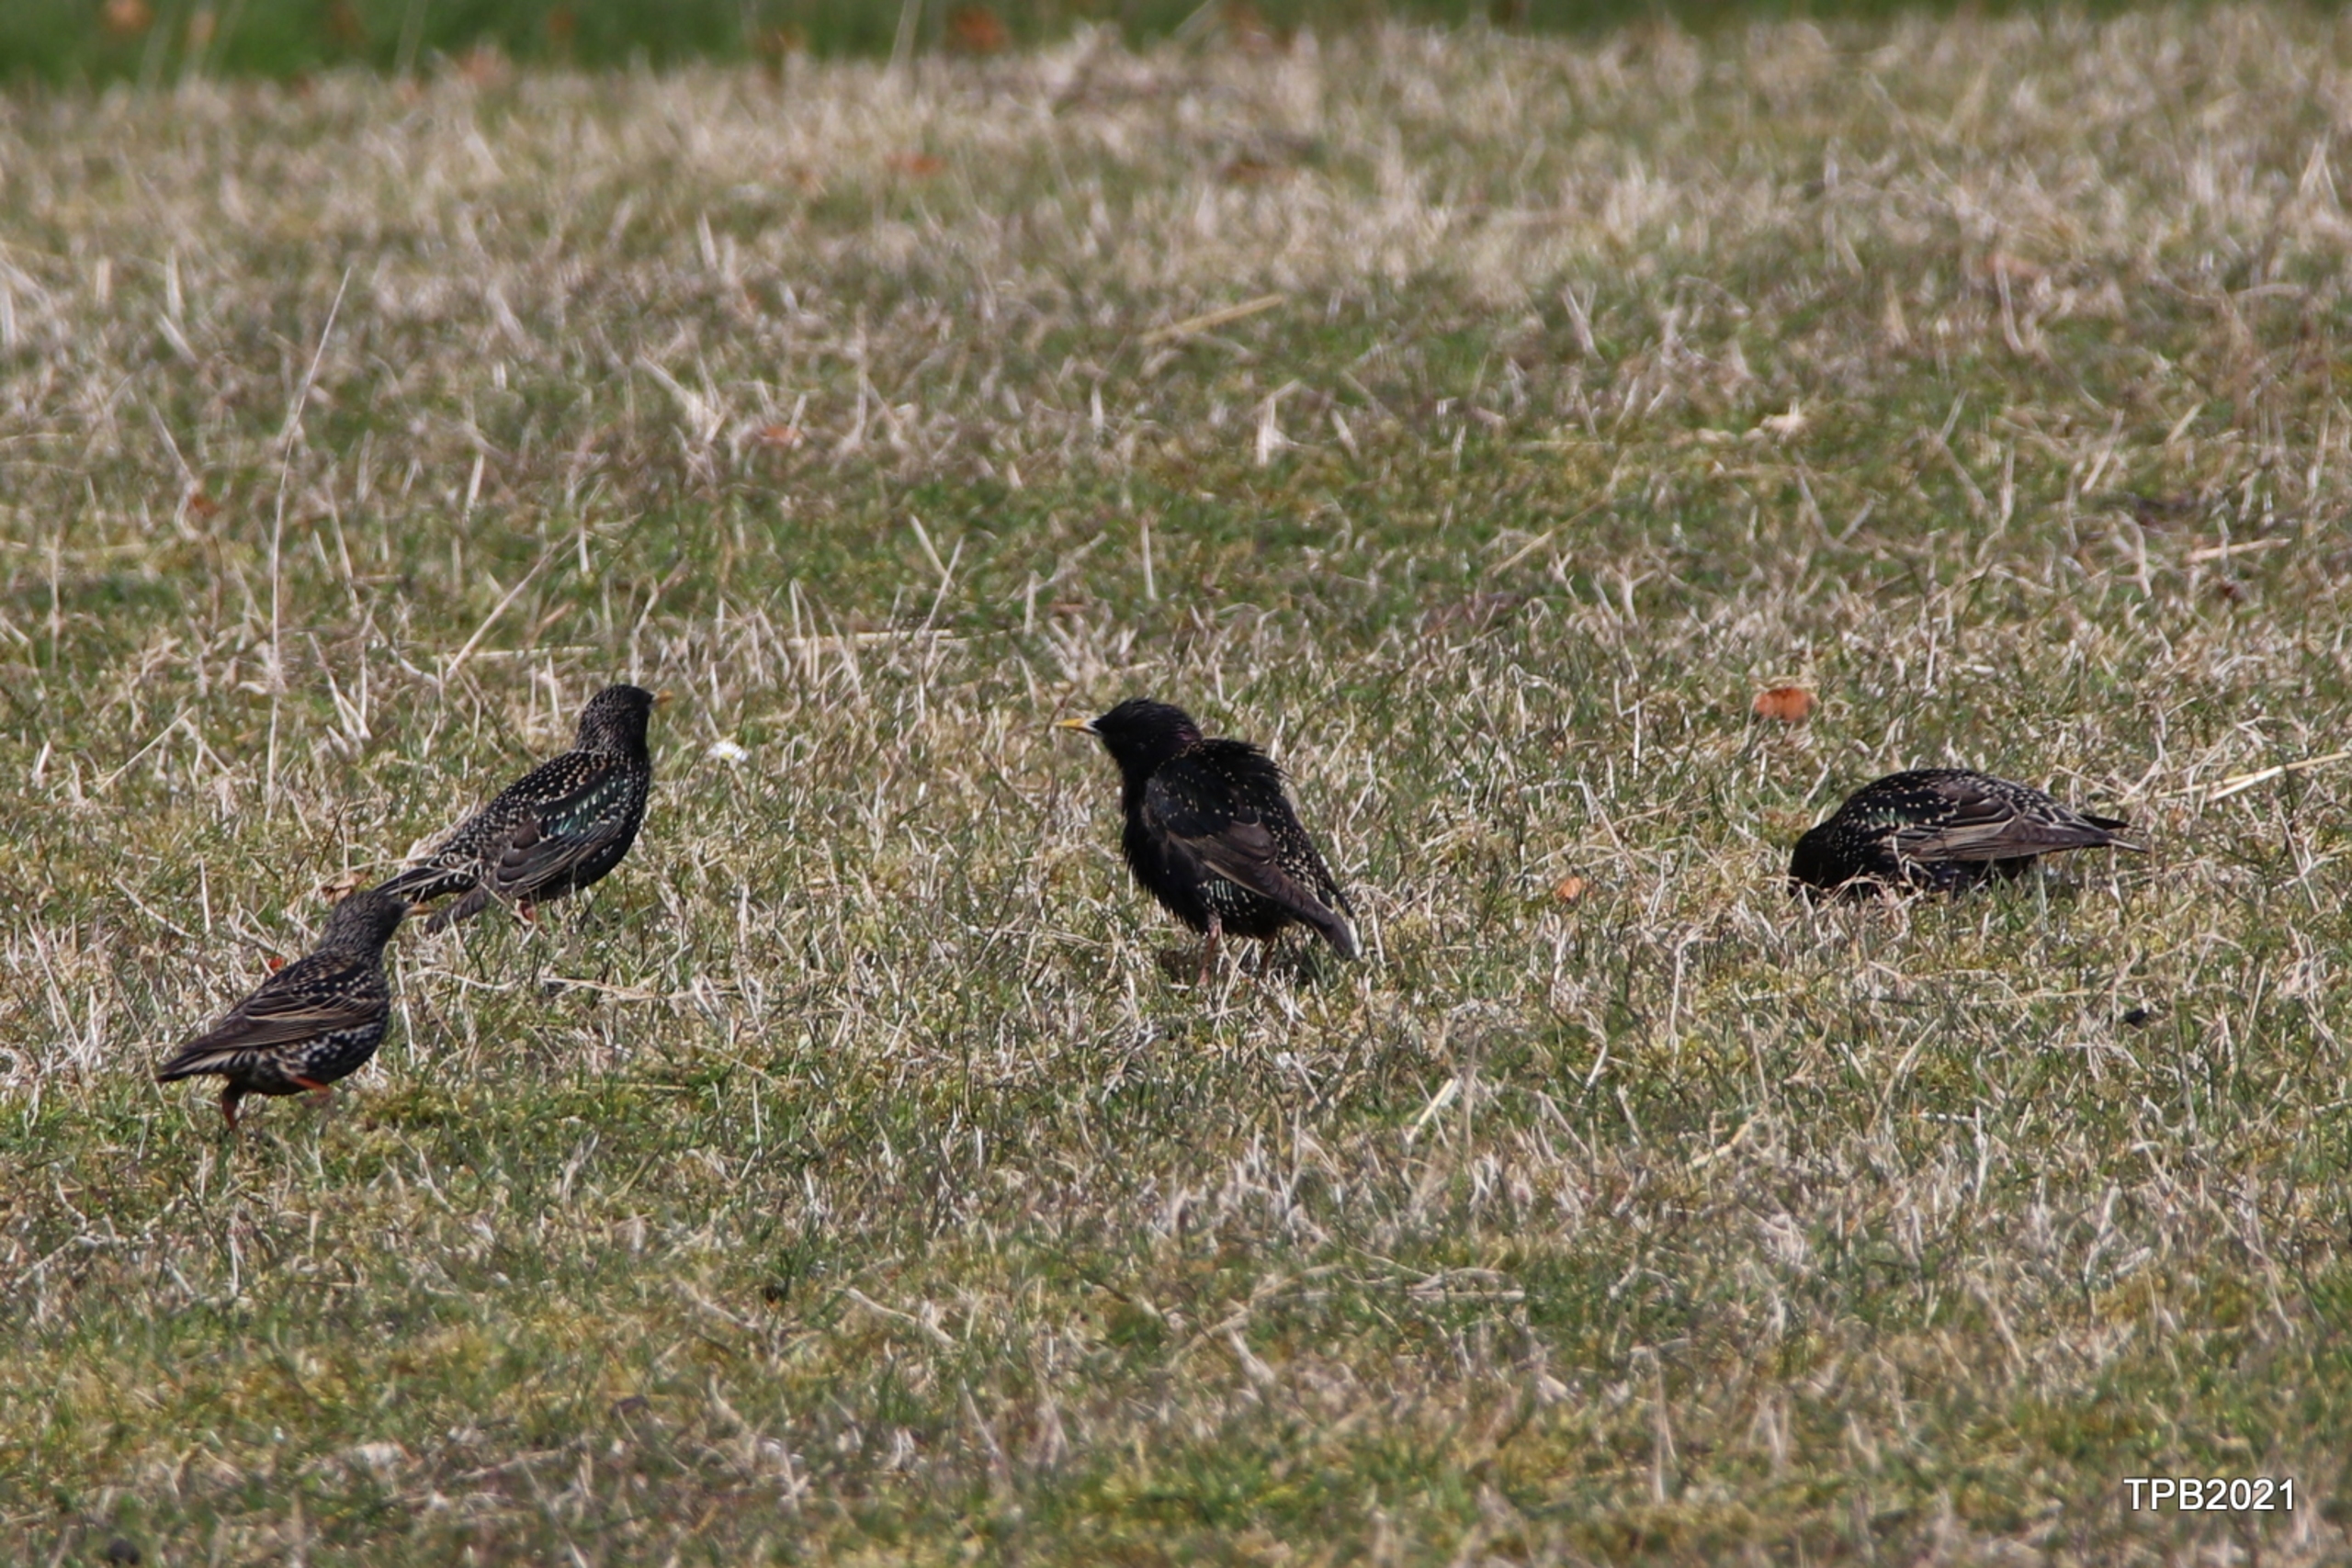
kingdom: Animalia
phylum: Chordata
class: Aves
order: Passeriformes
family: Sturnidae
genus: Sturnus
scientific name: Sturnus vulgaris
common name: Stær
